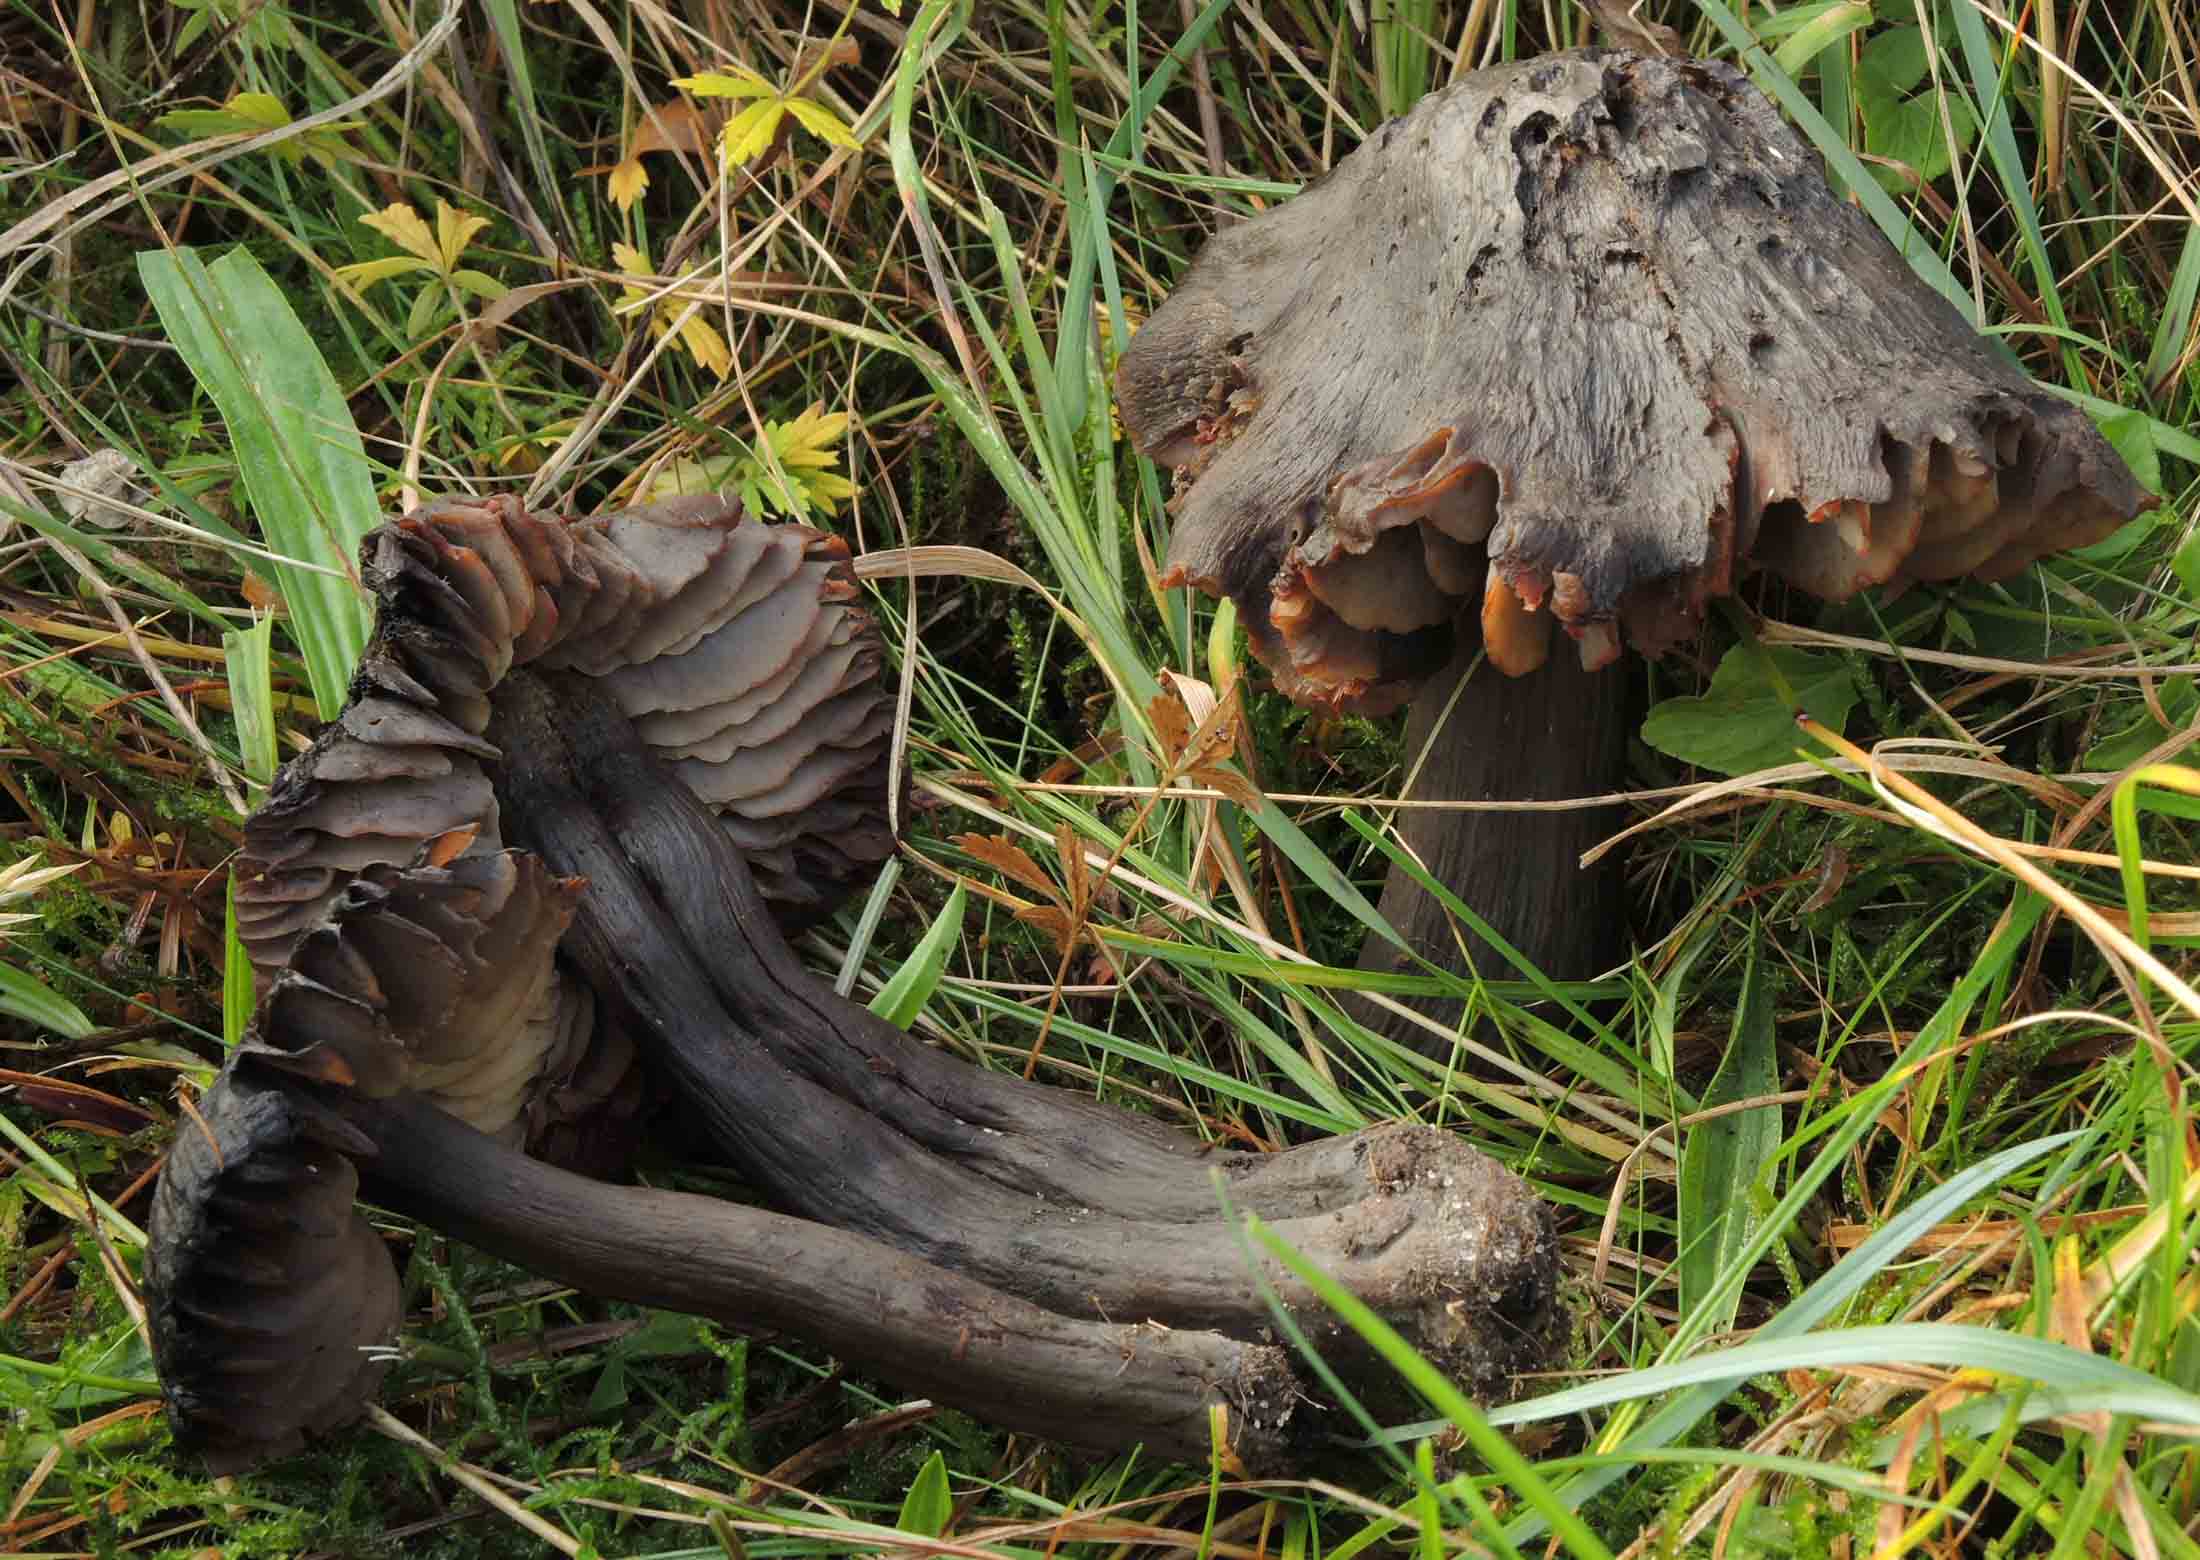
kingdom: Fungi
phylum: Basidiomycota
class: Agaricomycetes
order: Agaricales
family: Hygrophoraceae
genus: Neohygrocybe
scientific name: Neohygrocybe ovina
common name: rødmende vokshat
